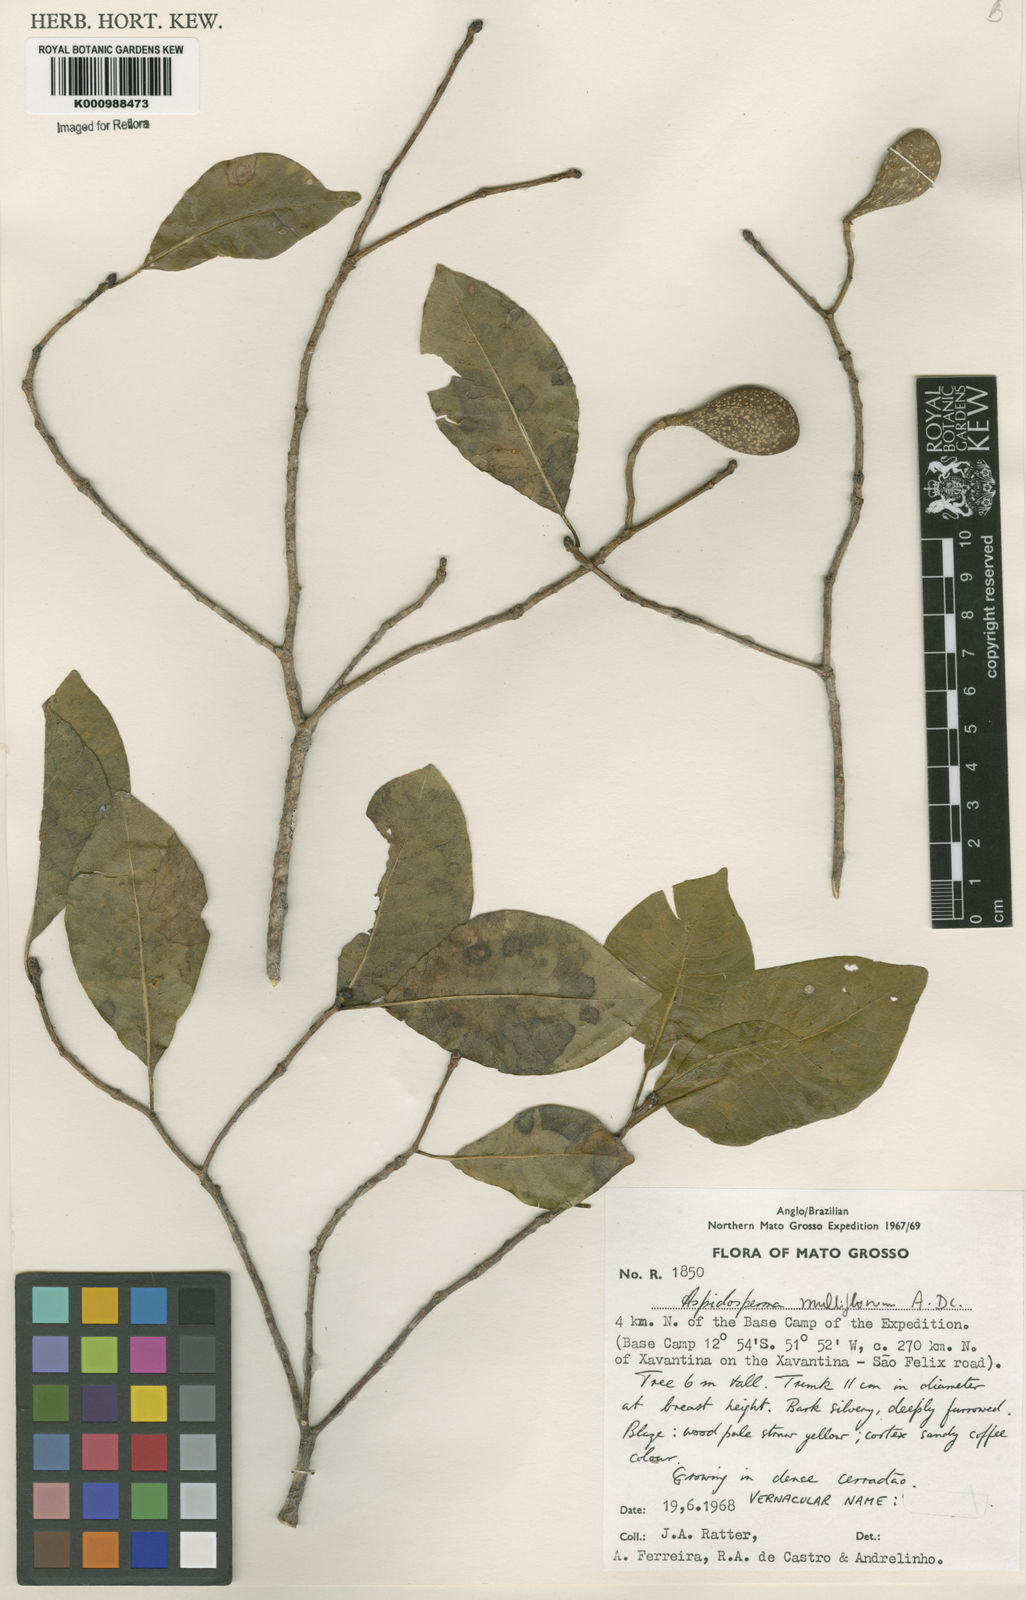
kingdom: Plantae
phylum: Tracheophyta
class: Magnoliopsida
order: Gentianales
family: Apocynaceae
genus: Aspidosperma
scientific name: Aspidosperma multiflorum
